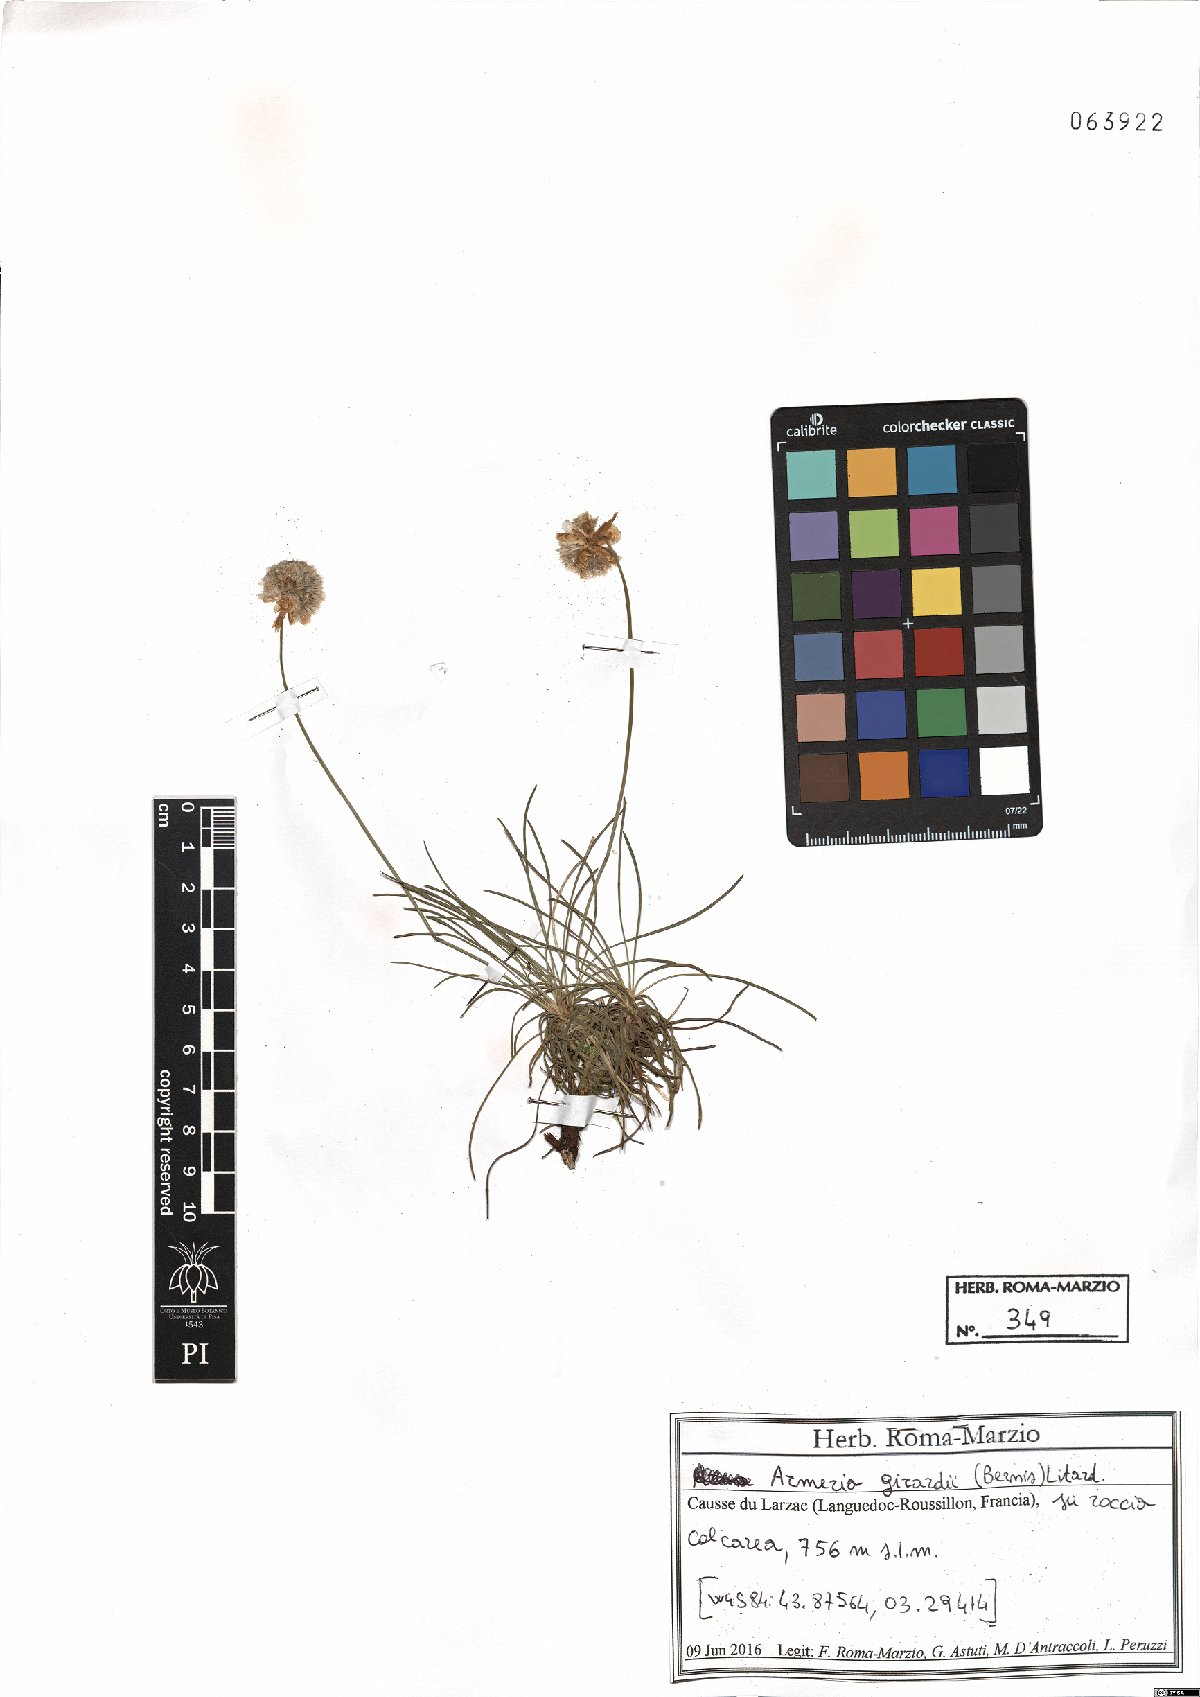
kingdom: Plantae
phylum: Tracheophyta
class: Magnoliopsida
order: Caryophyllales
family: Plumbaginaceae
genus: Armeria
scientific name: Armeria girardii
